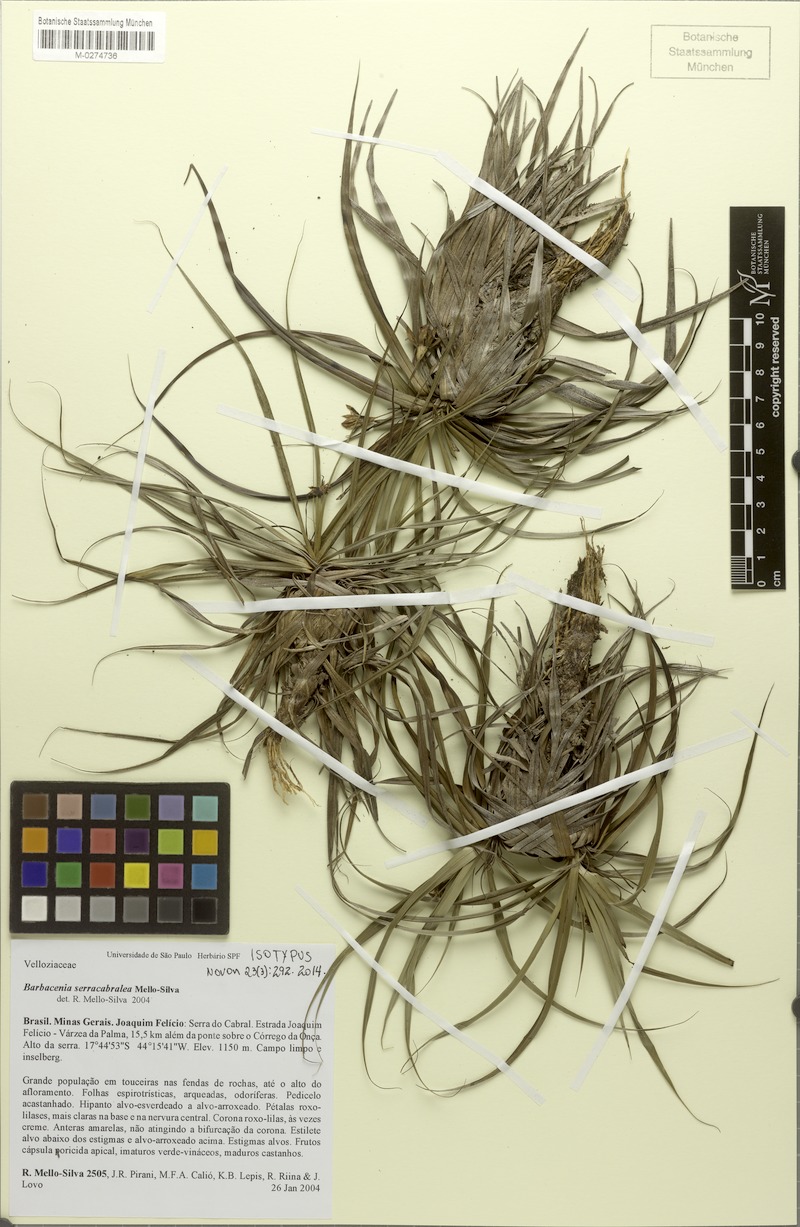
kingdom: Plantae
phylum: Tracheophyta
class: Liliopsida
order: Pandanales
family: Velloziaceae
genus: Barbacenia
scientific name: Barbacenia serracabralea
